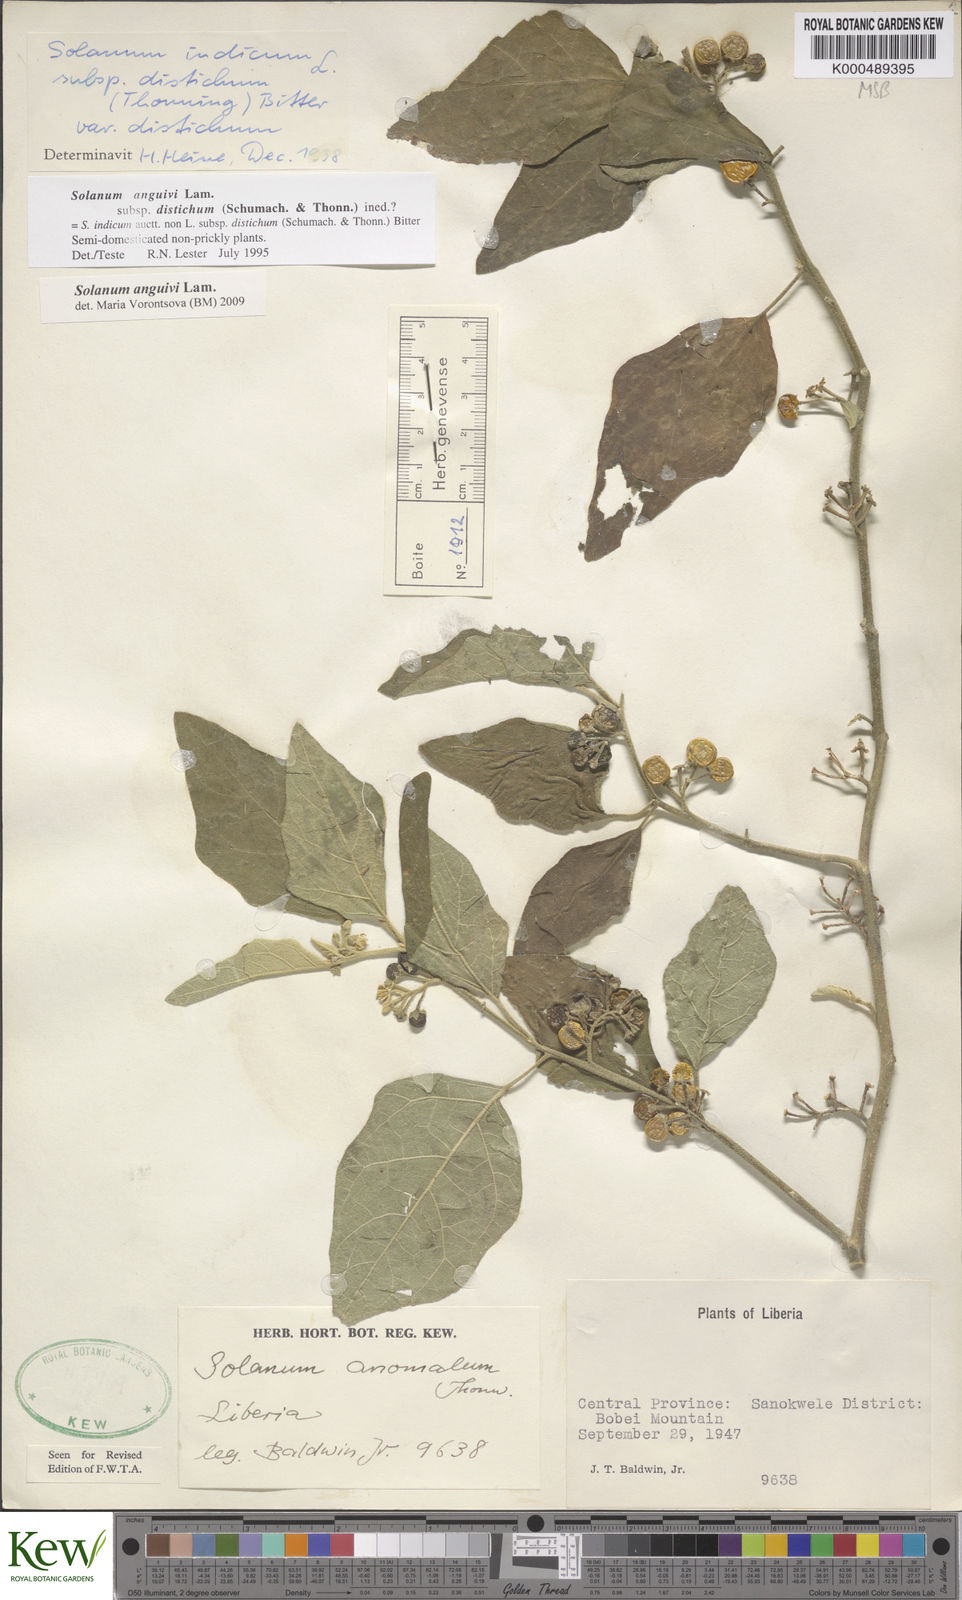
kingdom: Plantae
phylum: Tracheophyta
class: Magnoliopsida
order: Solanales
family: Solanaceae
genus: Solanum
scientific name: Solanum anguivi
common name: Forest bitterberry
